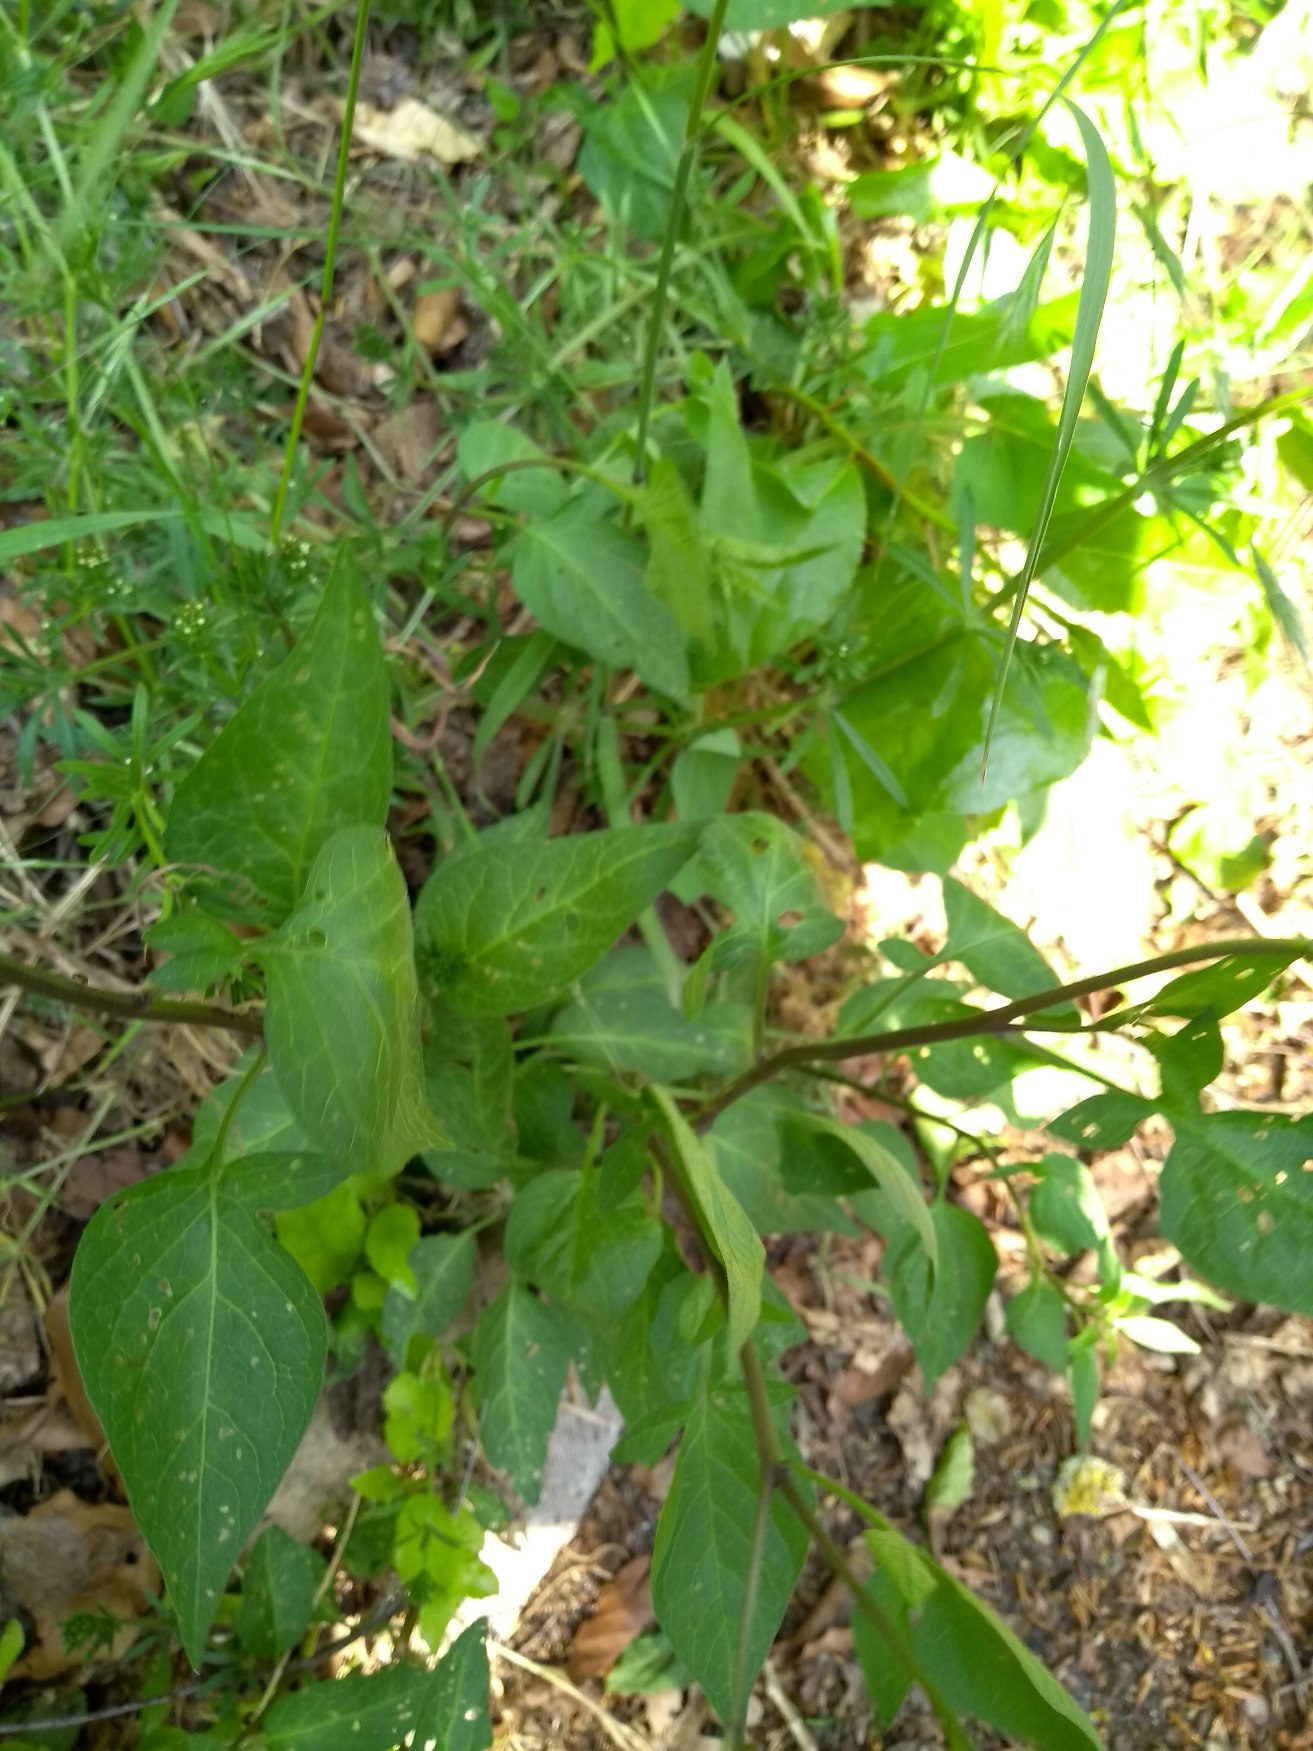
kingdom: Plantae
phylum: Tracheophyta
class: Magnoliopsida
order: Solanales
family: Solanaceae
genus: Solanum
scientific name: Solanum dulcamara
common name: Bittersød natskygge
